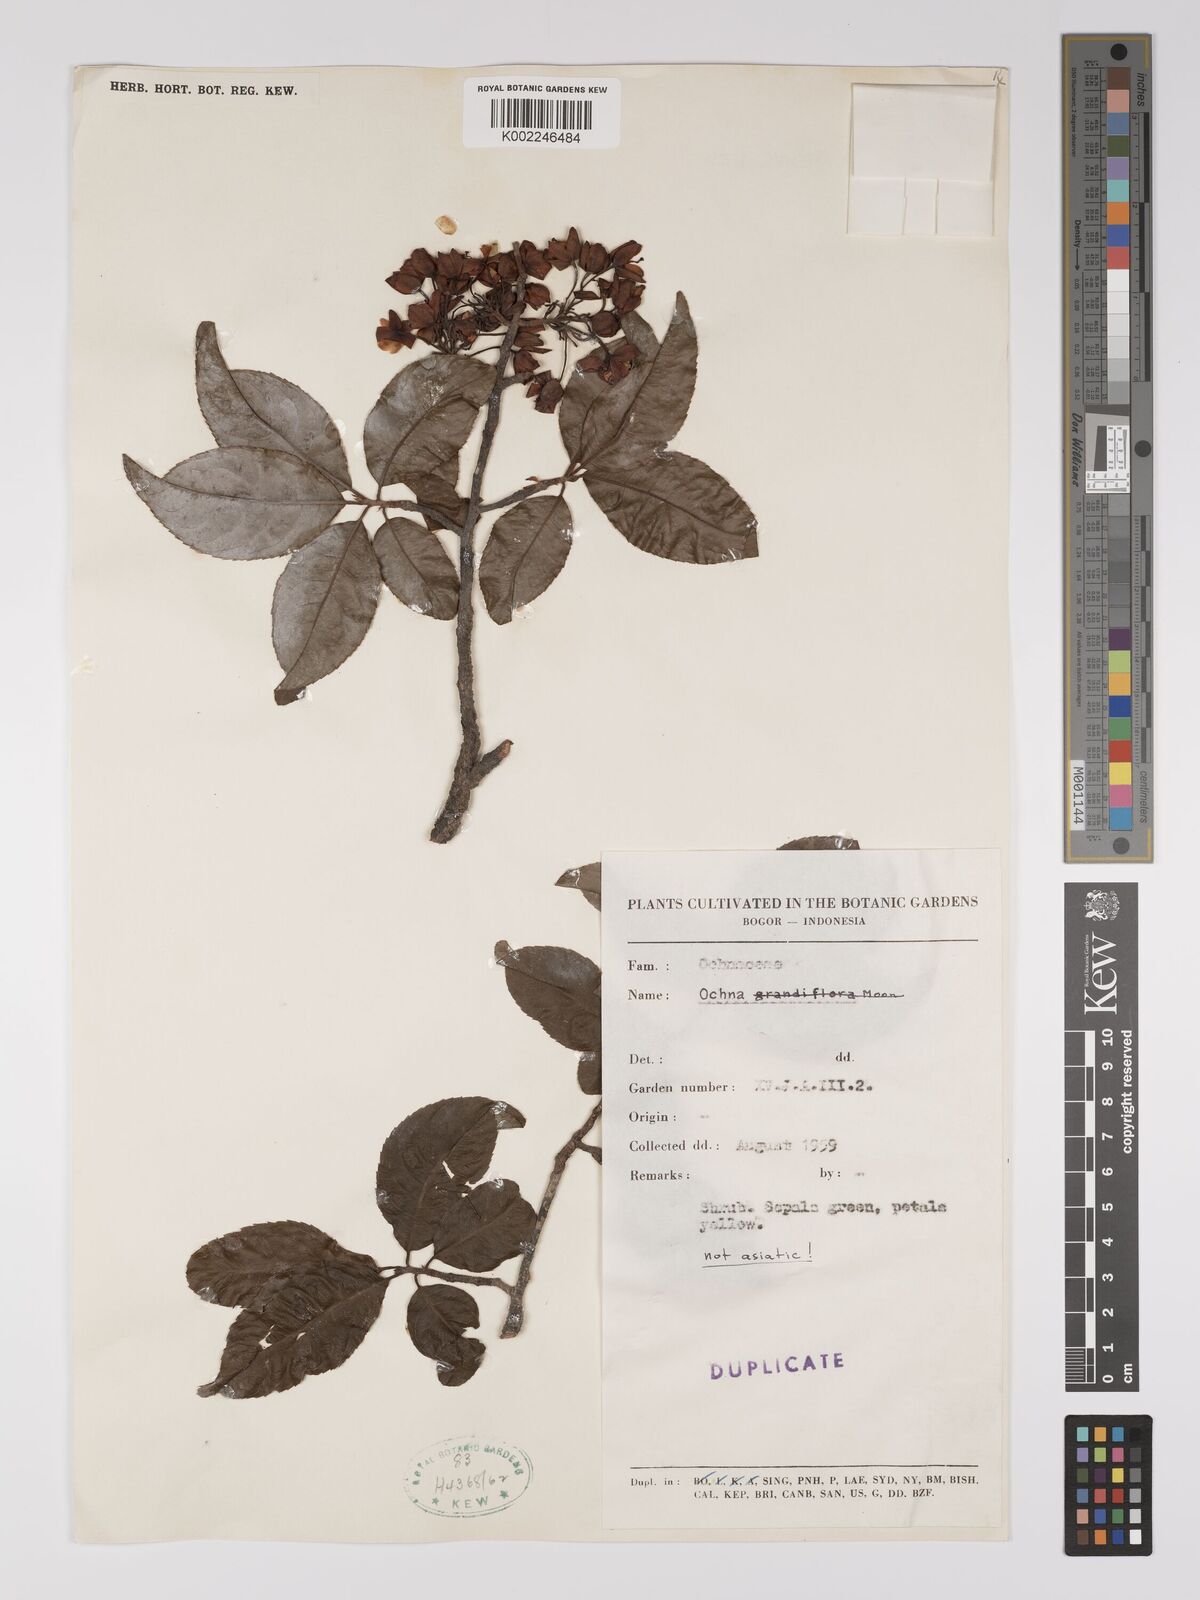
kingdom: Plantae
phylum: Tracheophyta
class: Magnoliopsida
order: Malpighiales
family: Ochnaceae
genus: Ochna
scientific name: Ochna
